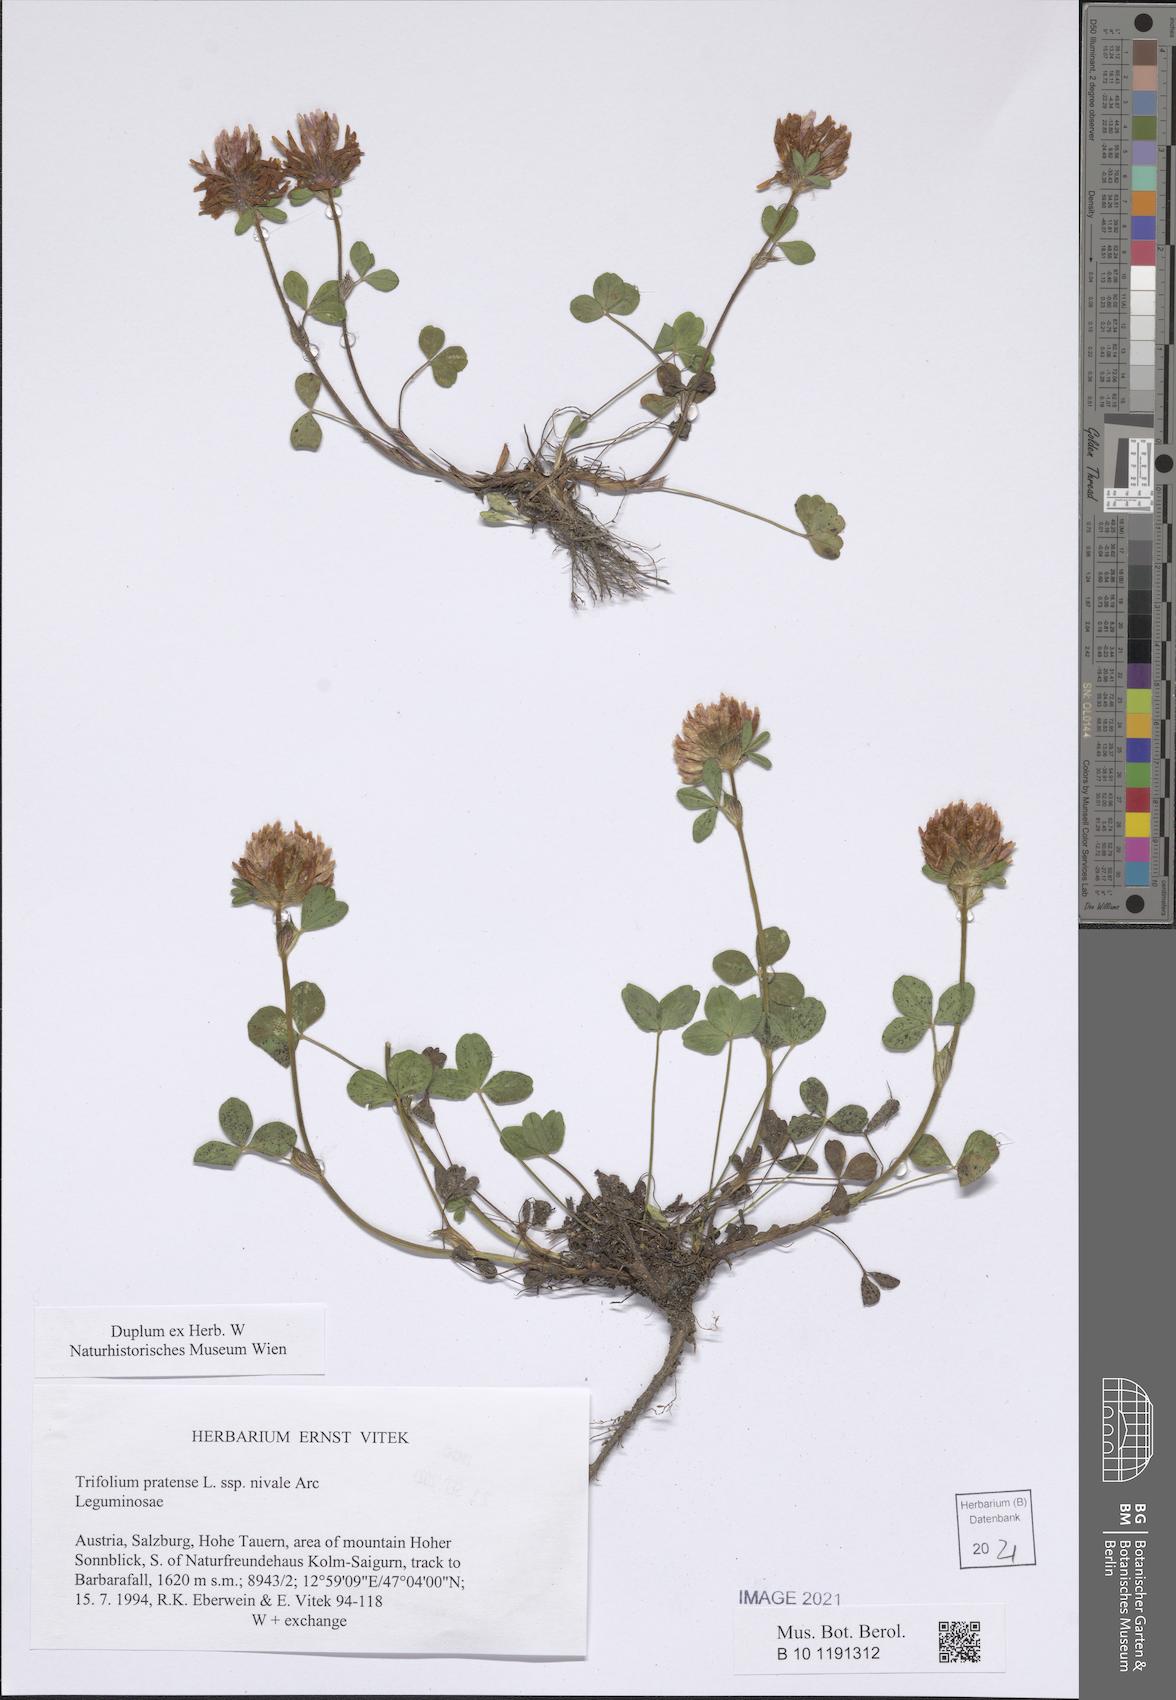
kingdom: Plantae
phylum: Tracheophyta
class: Magnoliopsida
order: Fabales
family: Fabaceae
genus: Trifolium
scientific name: Trifolium pratense
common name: Red clover
